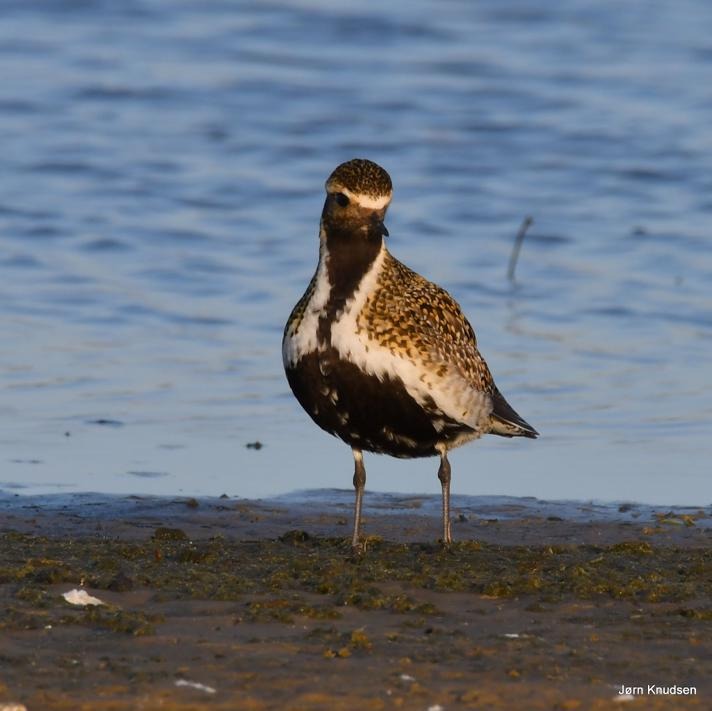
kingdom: Animalia
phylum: Chordata
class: Aves
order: Charadriiformes
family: Charadriidae
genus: Pluvialis
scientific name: Pluvialis apricaria
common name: Hjejle
